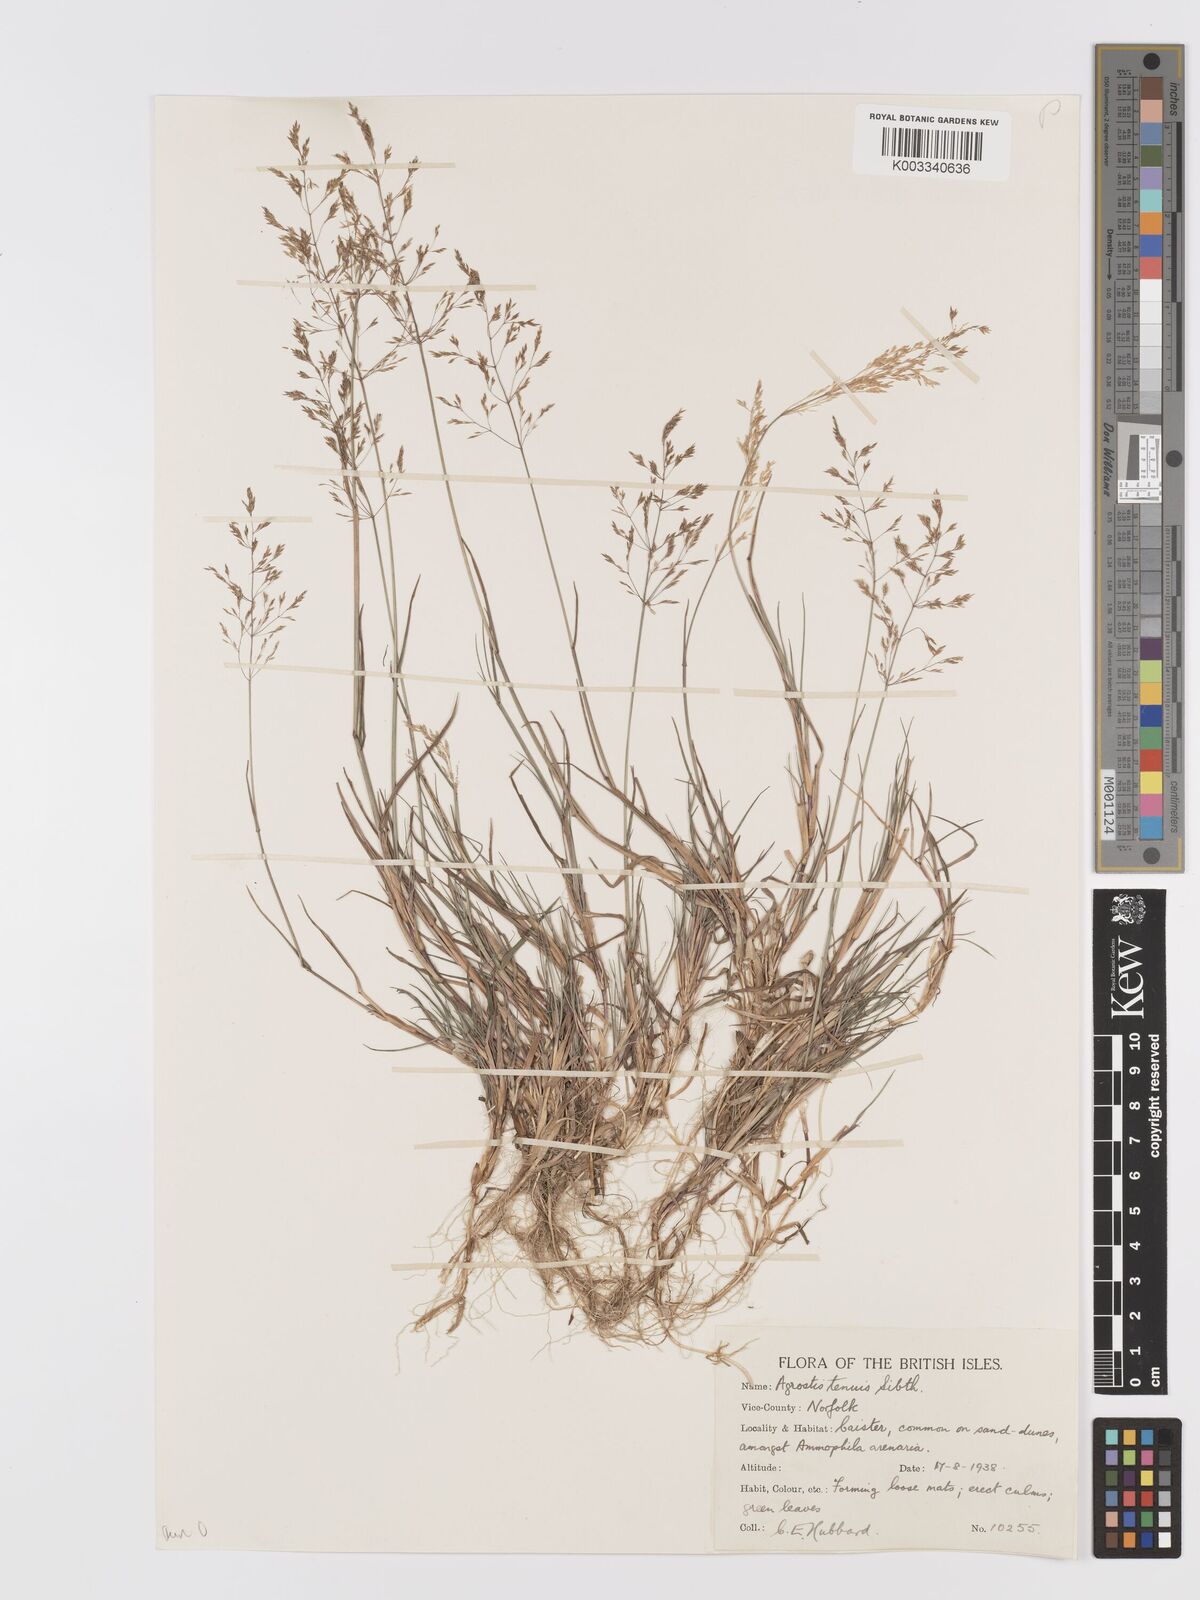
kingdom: Plantae
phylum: Tracheophyta
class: Liliopsida
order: Poales
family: Poaceae
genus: Agrostis
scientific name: Agrostis capillaris
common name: Colonial bentgrass
